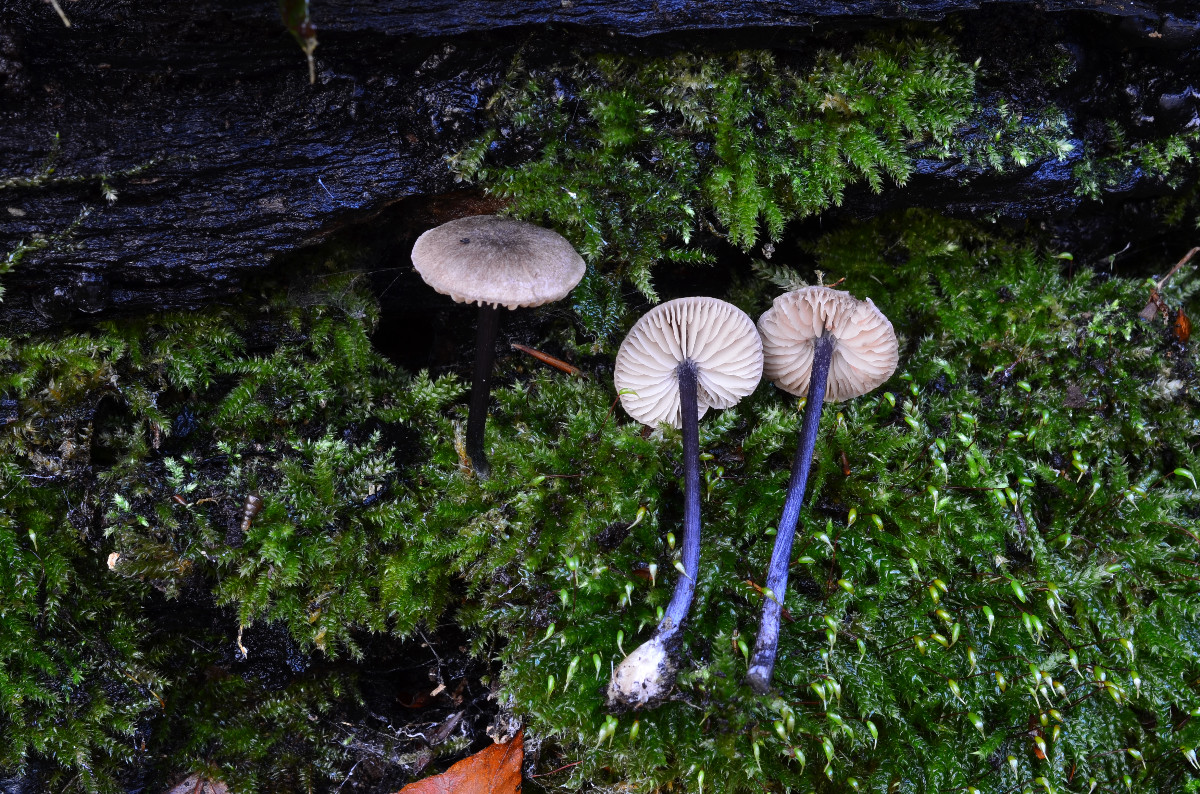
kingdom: Fungi
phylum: Basidiomycota
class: Agaricomycetes
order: Agaricales
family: Entolomataceae
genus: Entoloma
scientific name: Entoloma placidum
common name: bøge-rødblad
